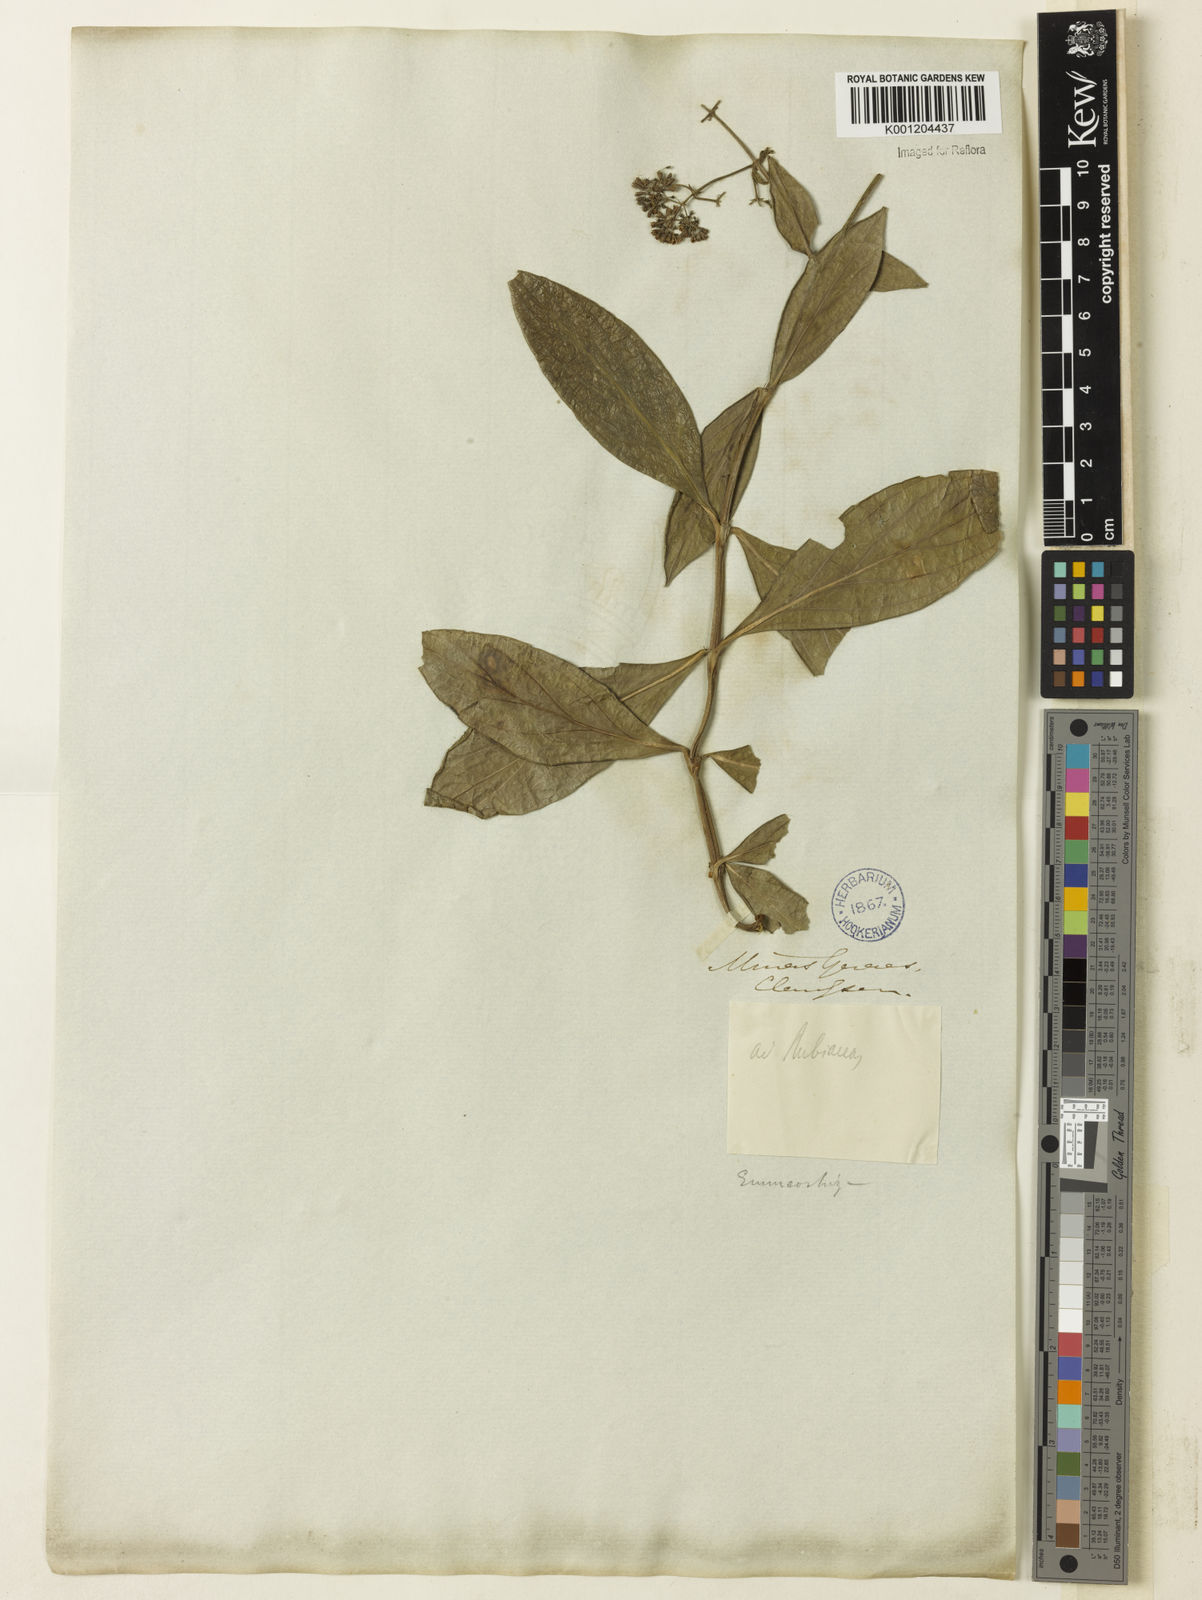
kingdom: Plantae
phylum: Tracheophyta
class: Magnoliopsida
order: Gentianales
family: Rubiaceae
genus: Emmeorhiza
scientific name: Emmeorhiza umbellata
